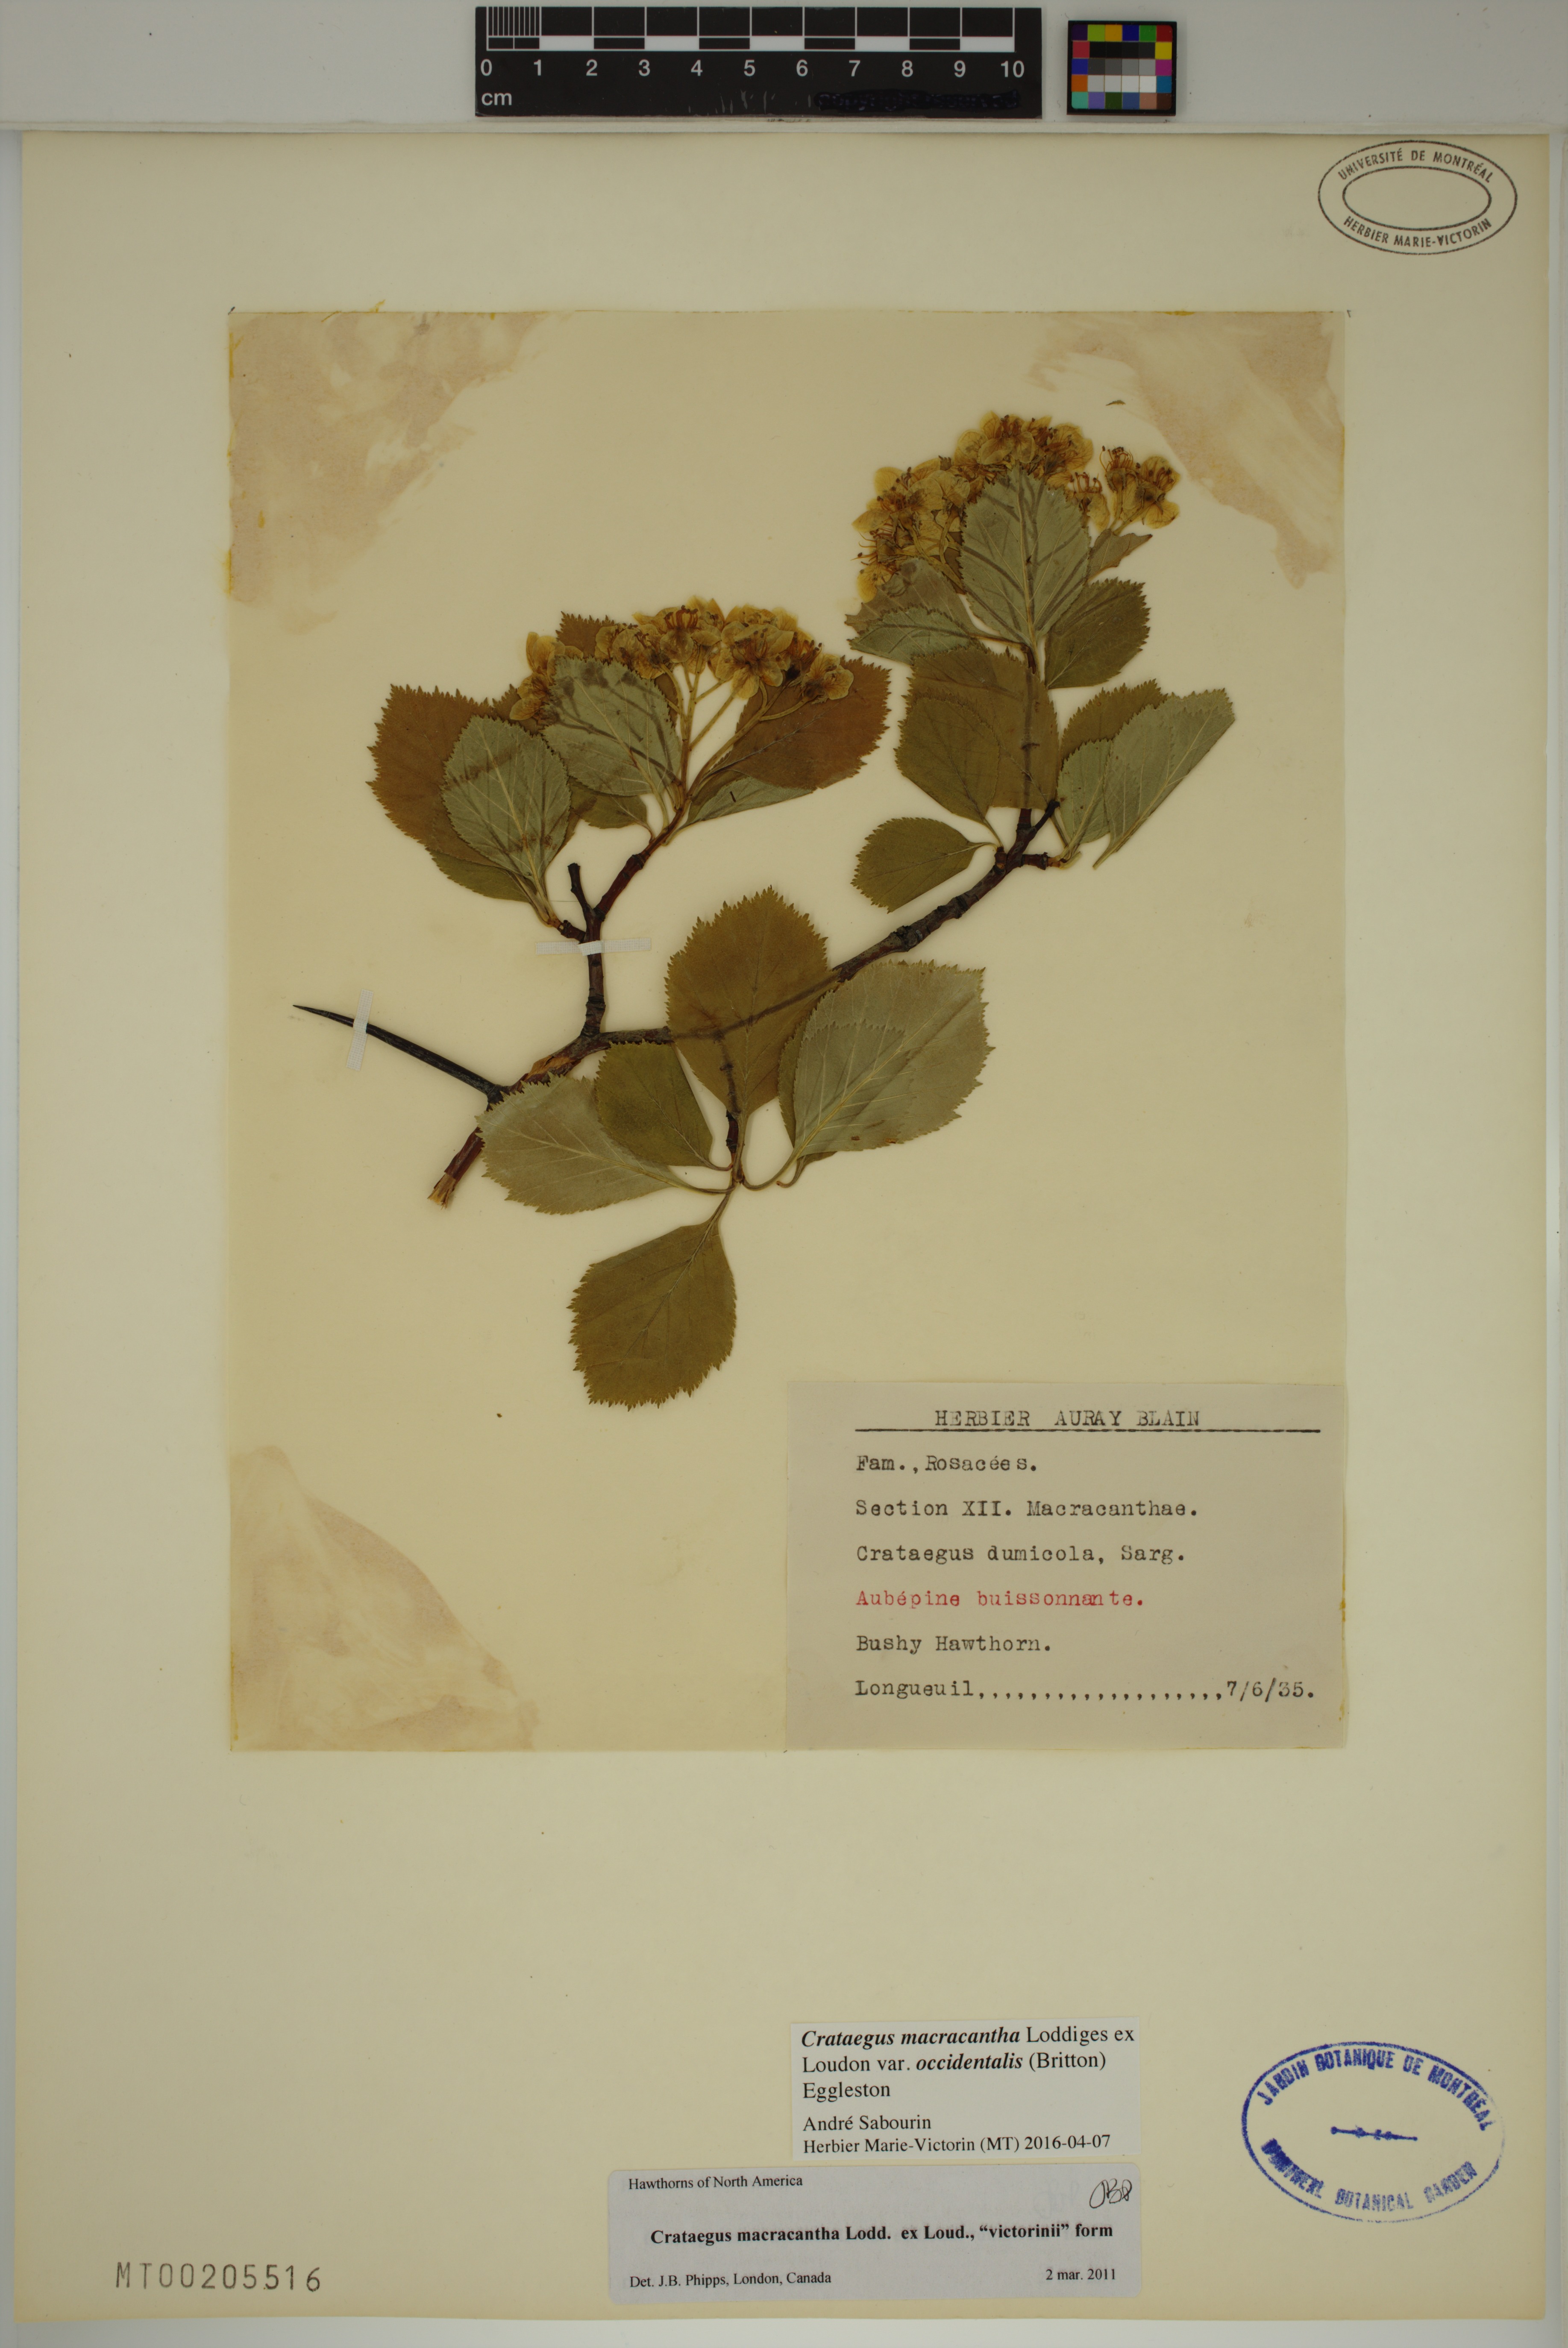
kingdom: Plantae
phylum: Tracheophyta
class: Magnoliopsida
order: Rosales
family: Rosaceae
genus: Crataegus
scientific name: Crataegus macracantha
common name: Large-thorn hawthorn
